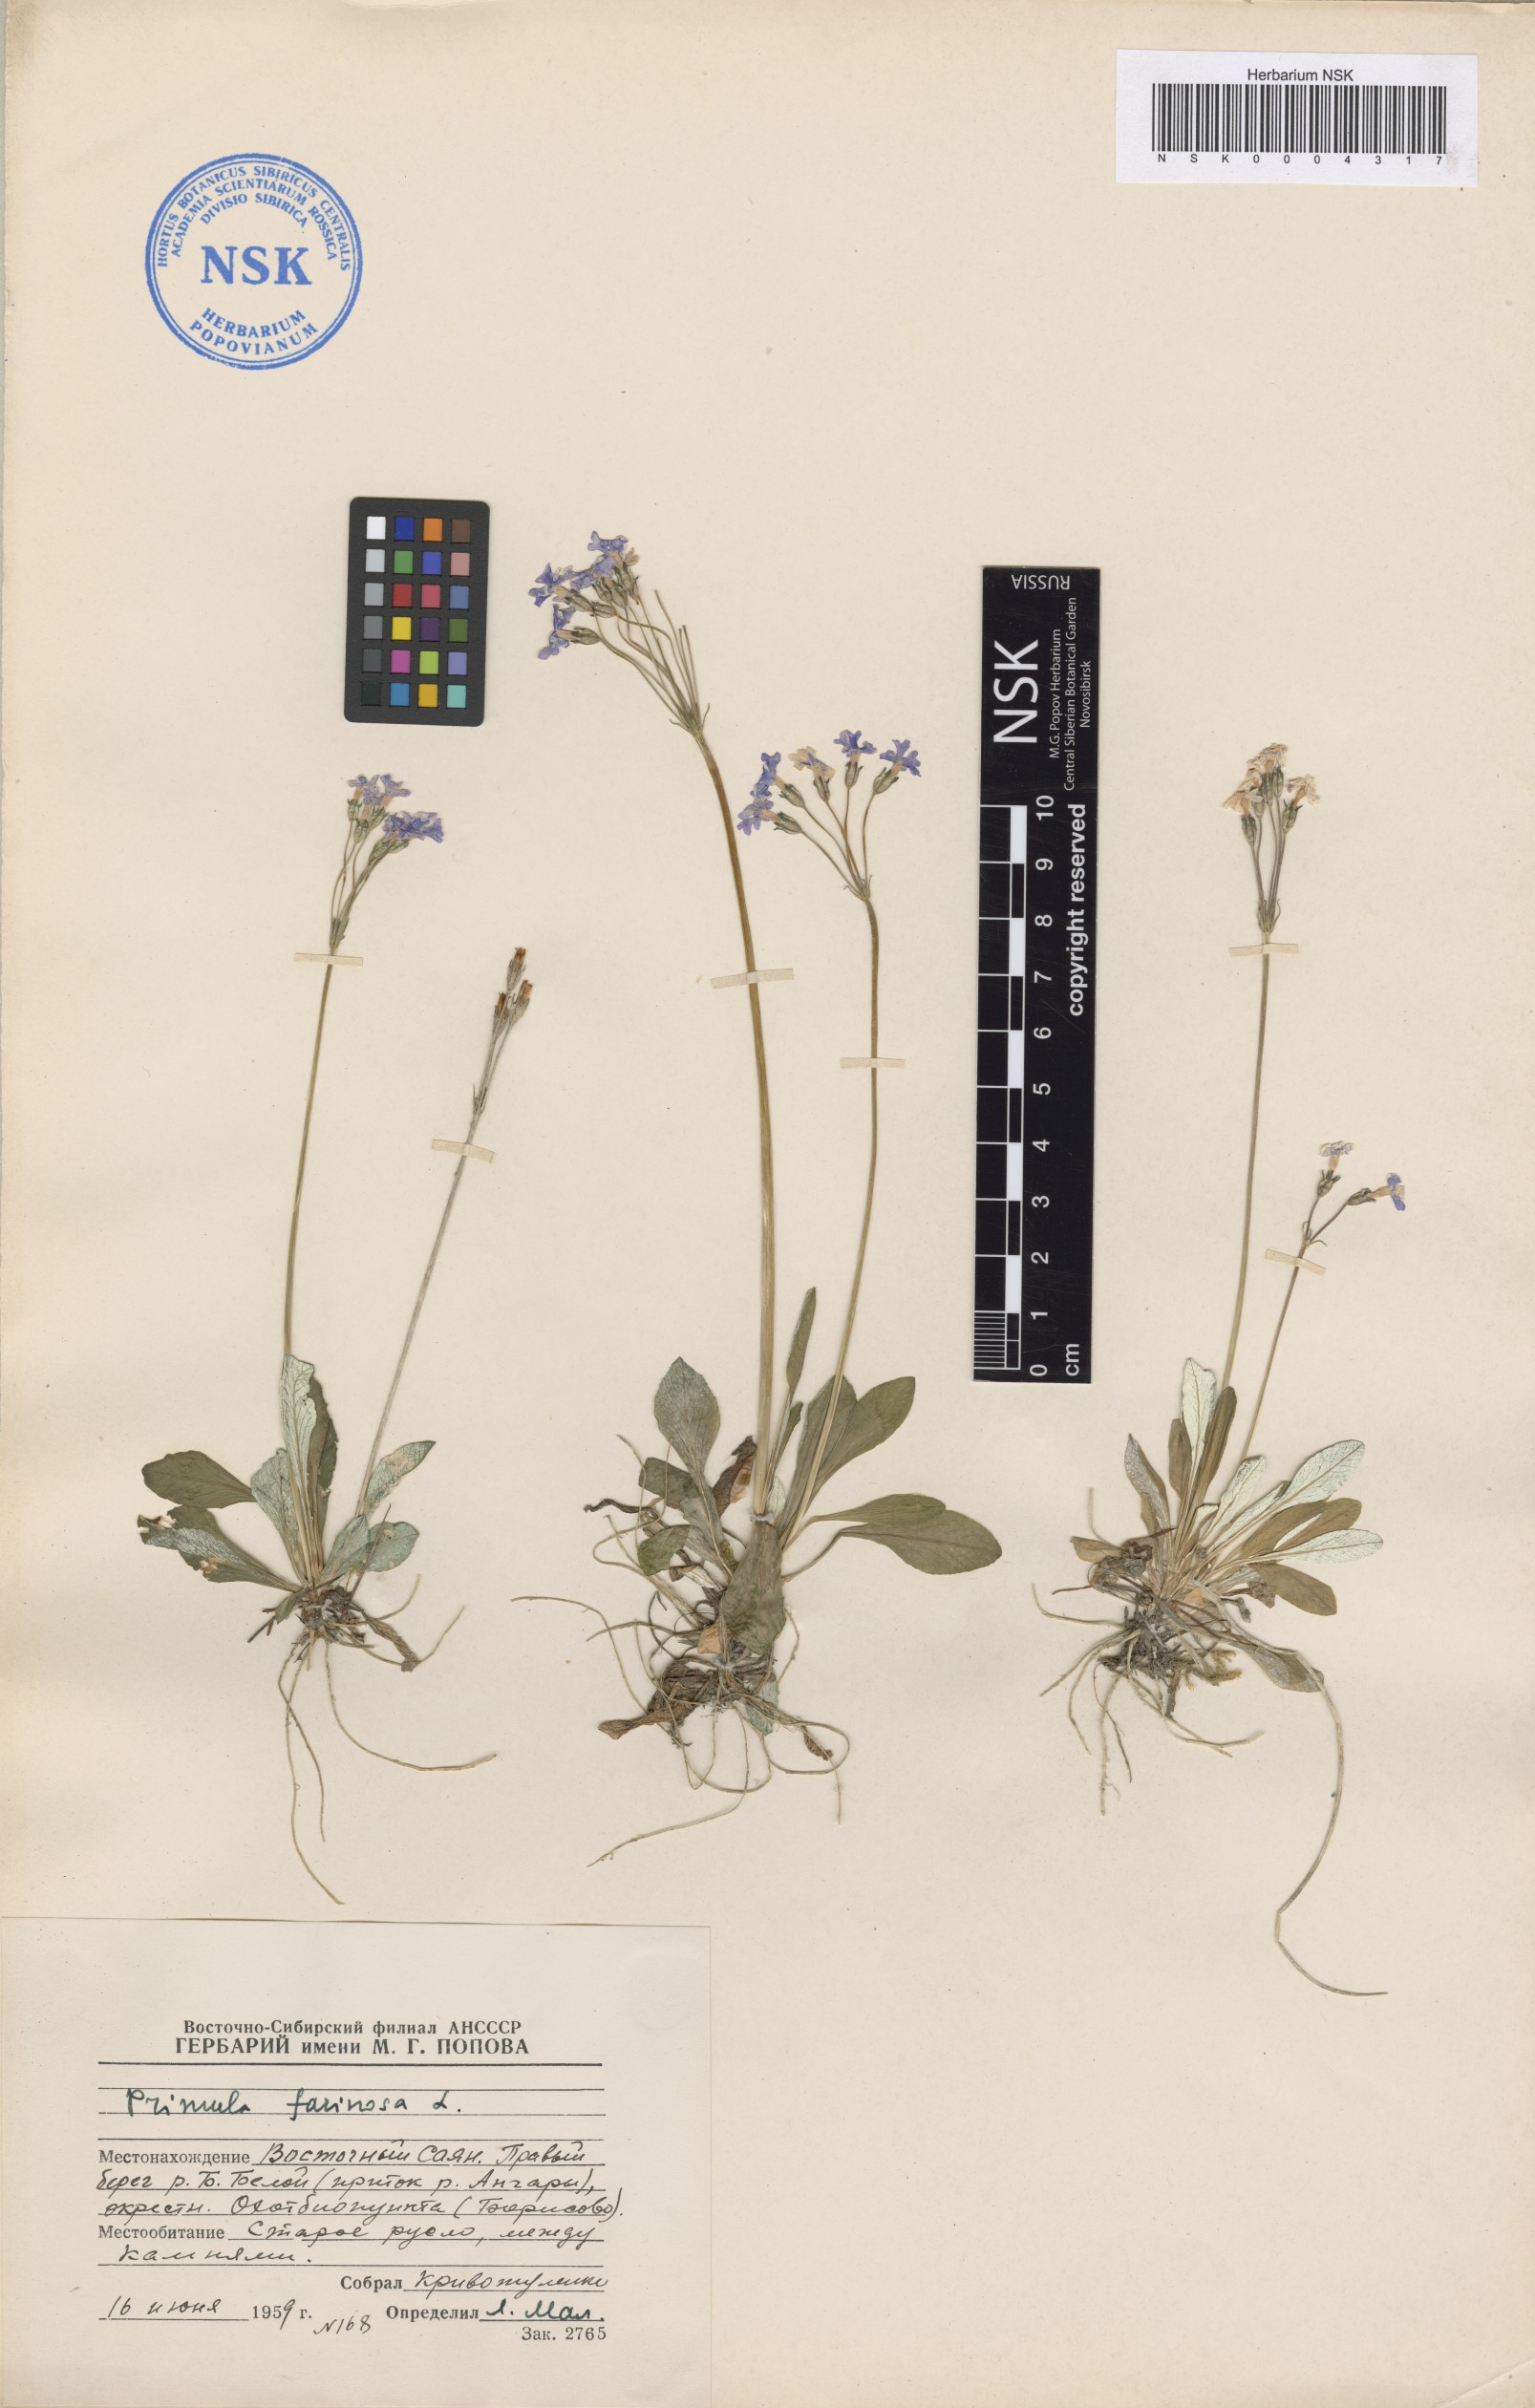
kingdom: Plantae
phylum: Tracheophyta
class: Magnoliopsida
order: Ericales
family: Primulaceae
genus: Primula
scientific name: Primula farinosa
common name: Bird's-eye primrose
